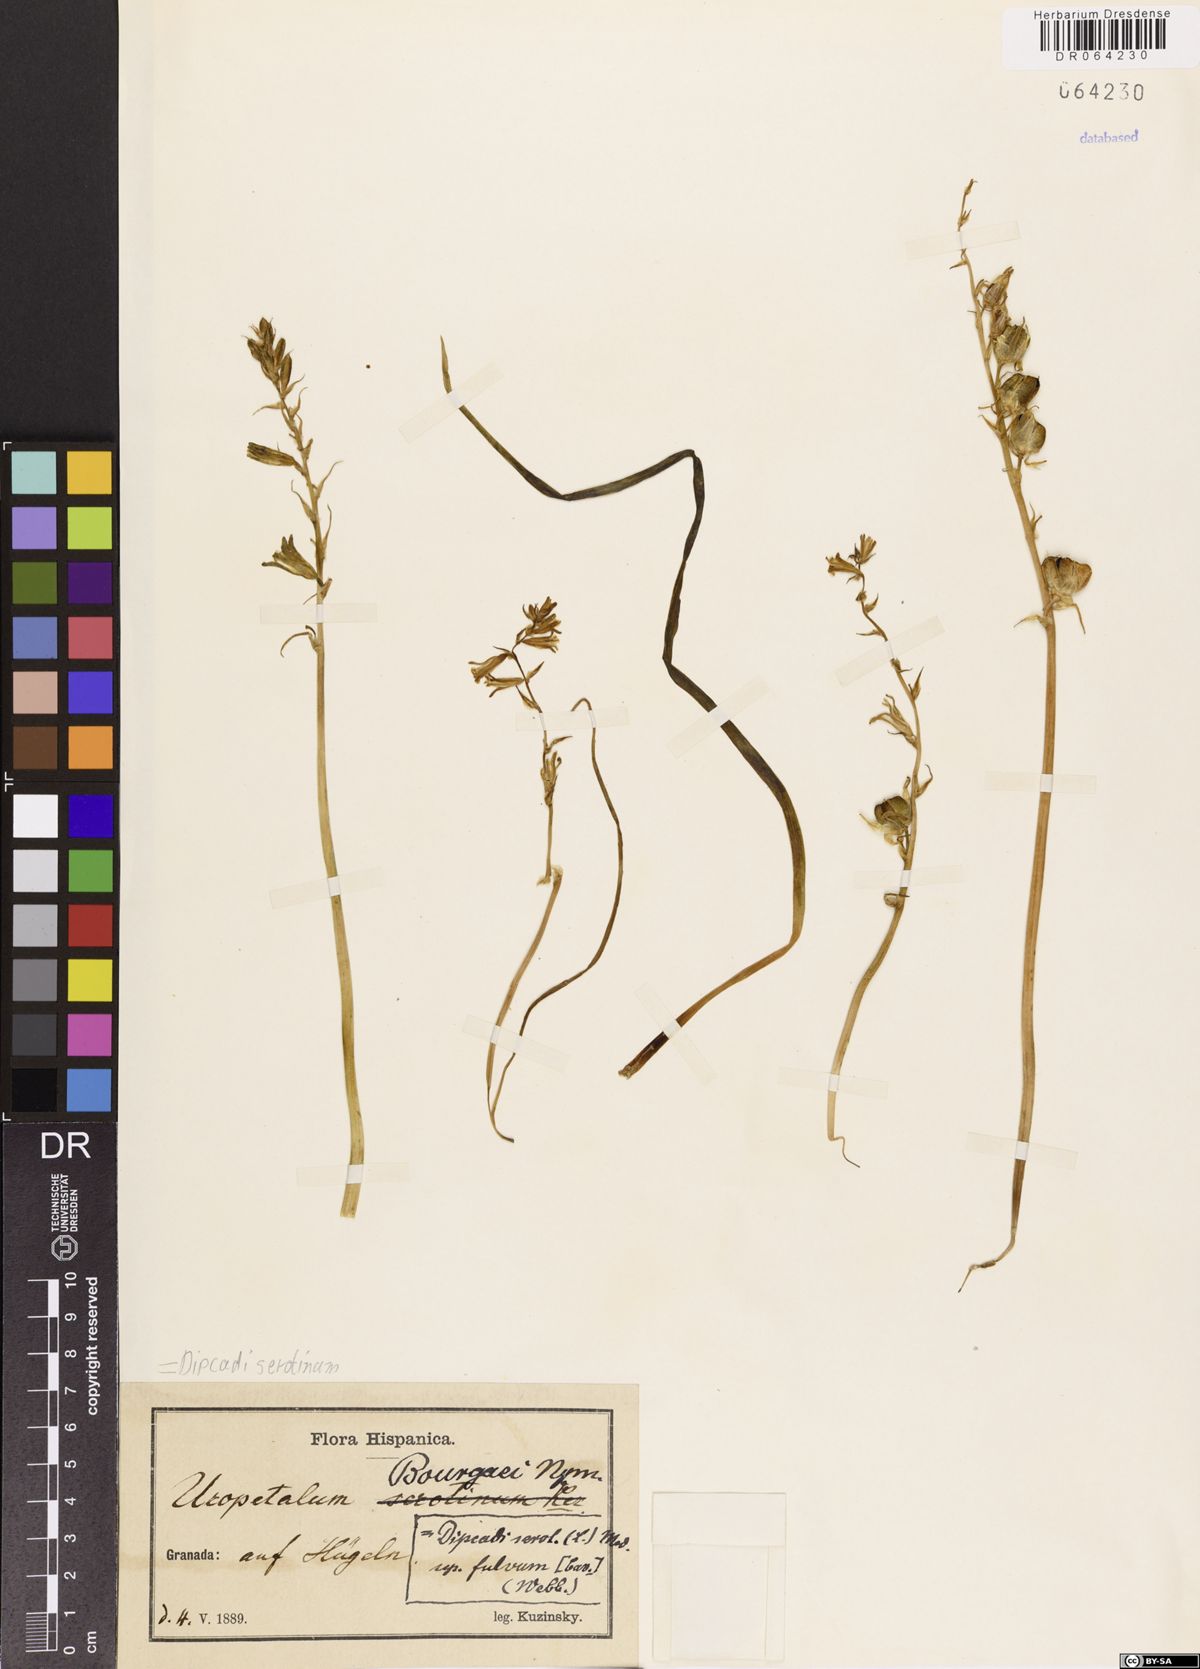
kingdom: Plantae
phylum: Tracheophyta
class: Liliopsida
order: Asparagales
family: Asparagaceae
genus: Dipcadi
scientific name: Dipcadi serotinum
